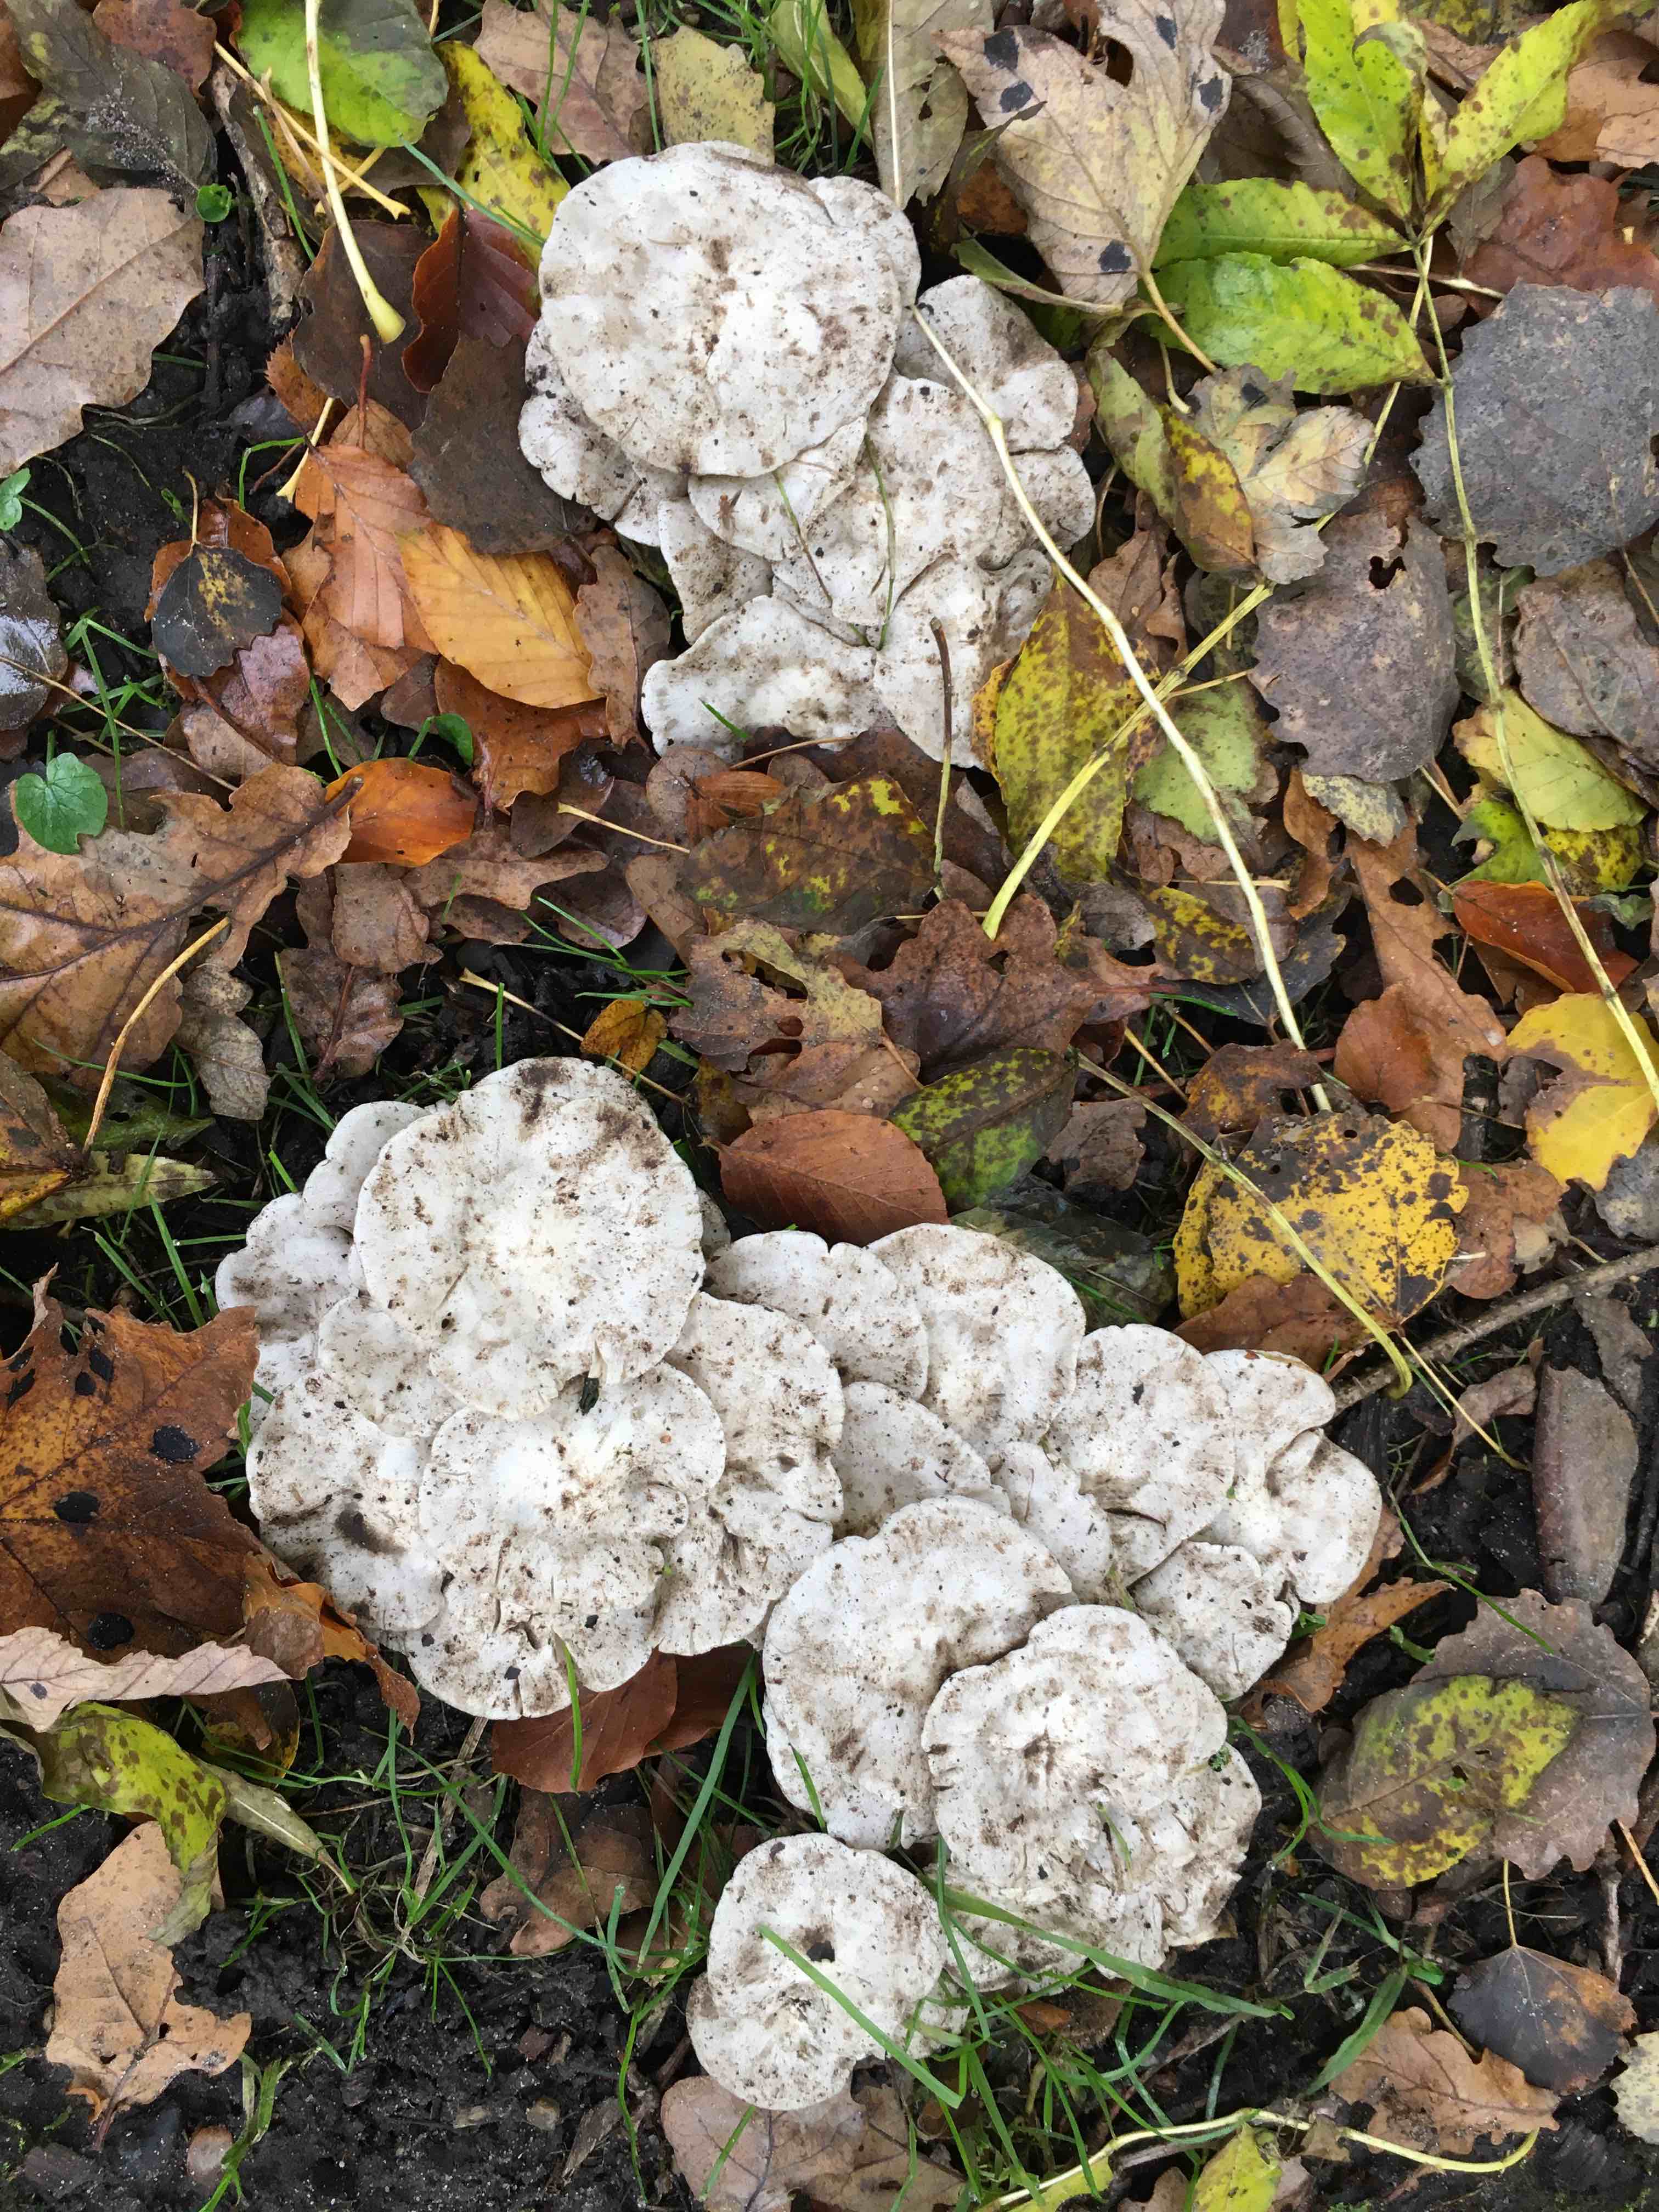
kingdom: Fungi
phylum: Basidiomycota
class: Agaricomycetes
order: Agaricales
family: Tricholomataceae
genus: Leucocybe
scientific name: Leucocybe connata
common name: knippe-tragthat
